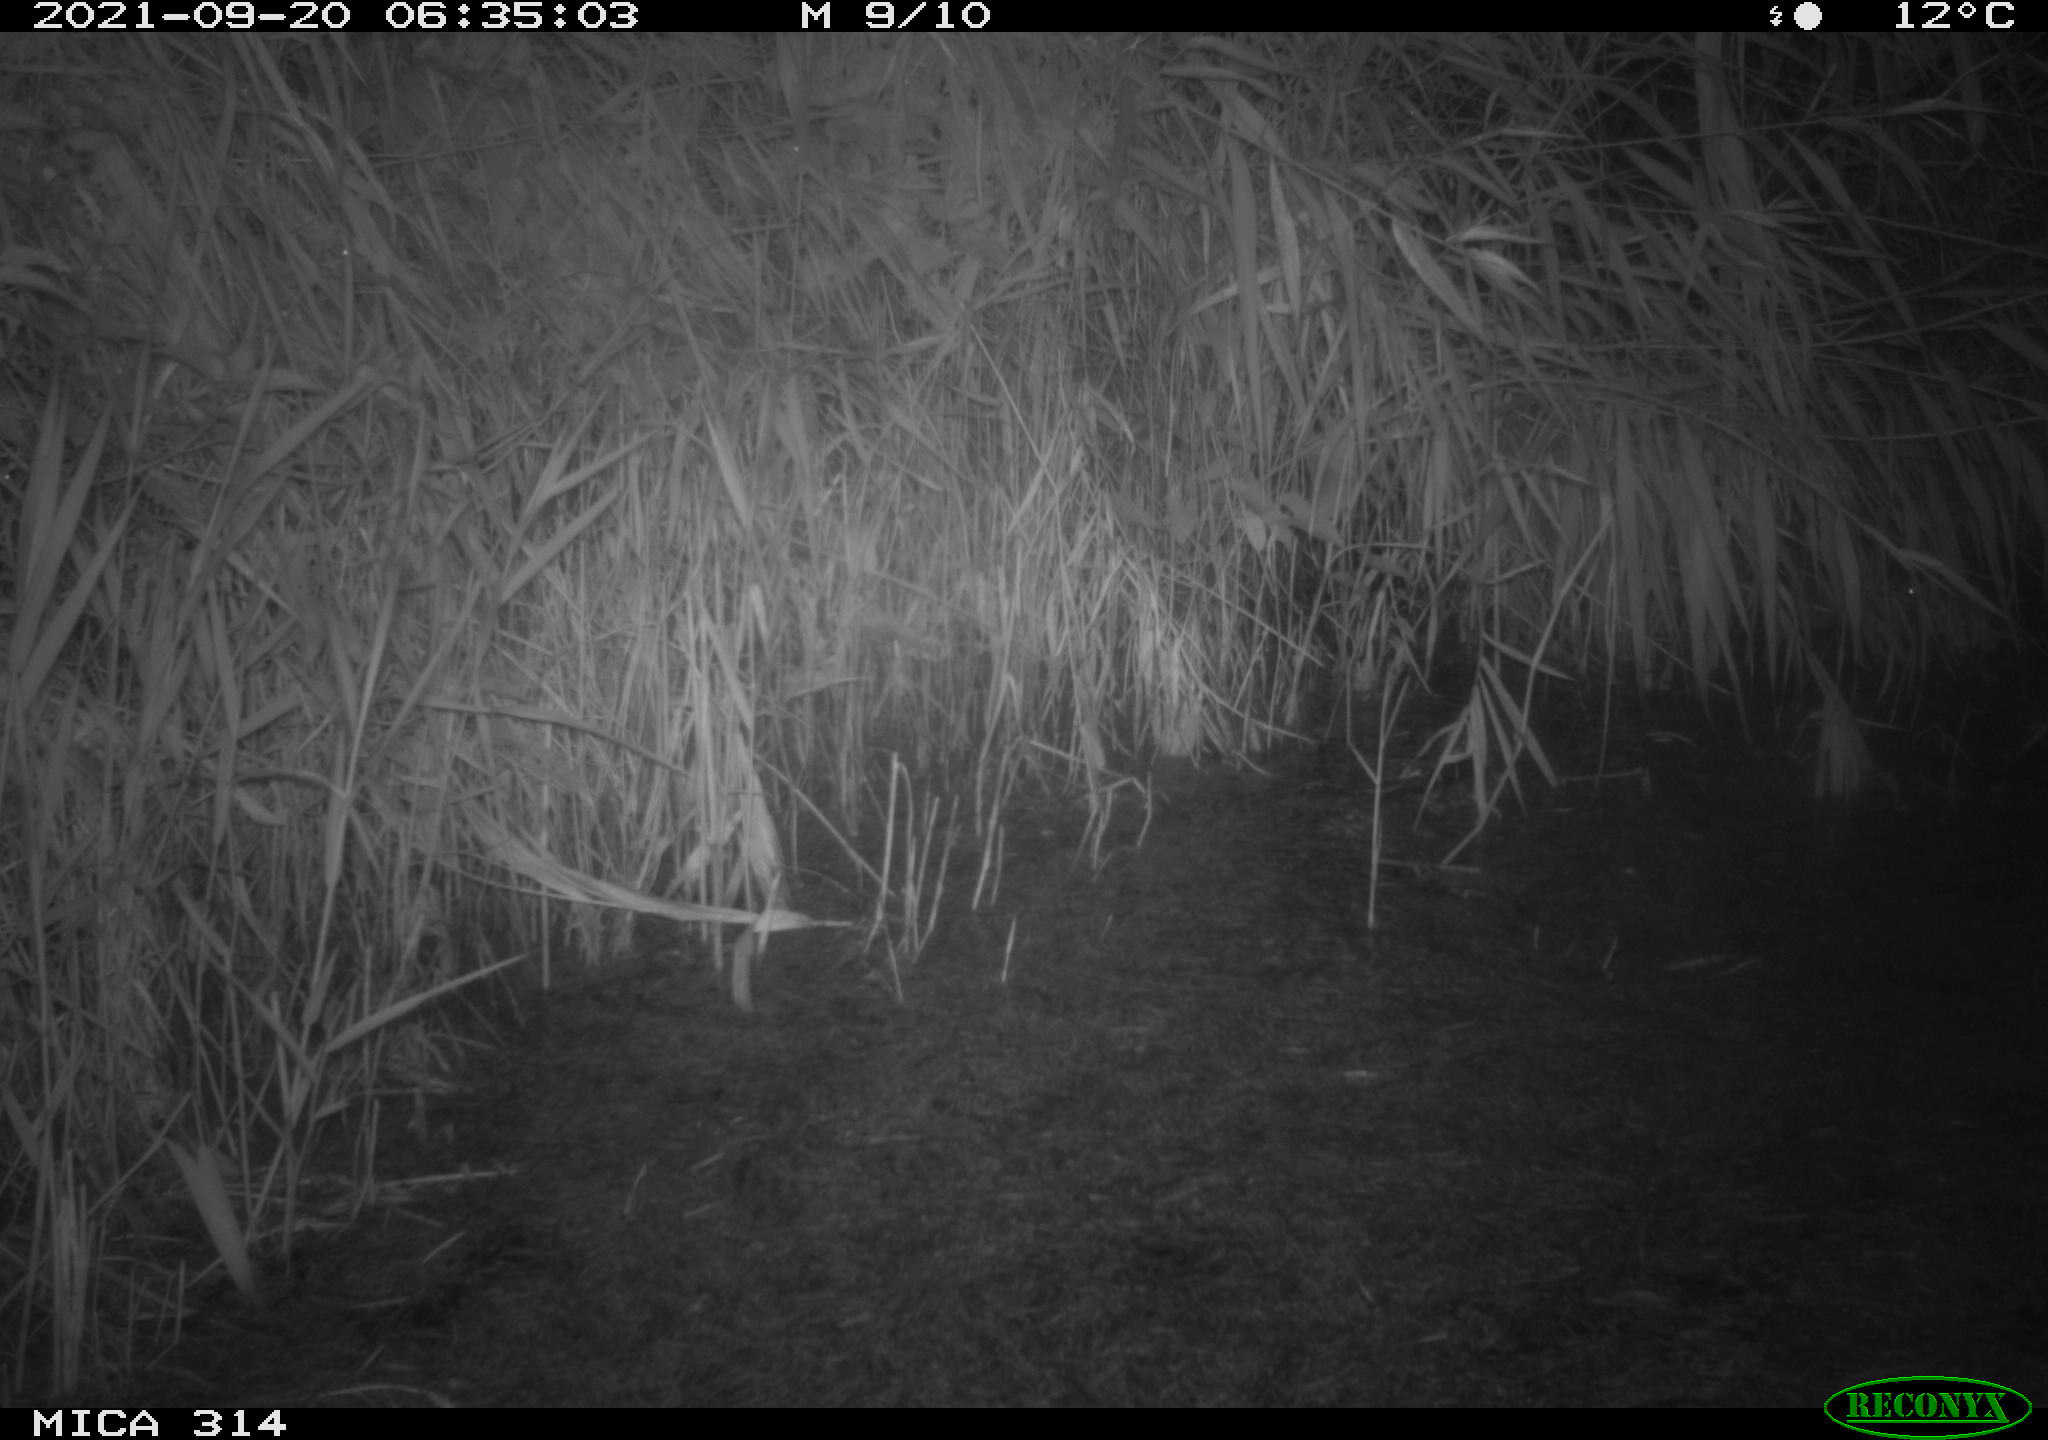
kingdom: Animalia
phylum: Chordata
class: Mammalia
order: Rodentia
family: Muridae
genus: Rattus
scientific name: Rattus norvegicus
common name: Brown rat
